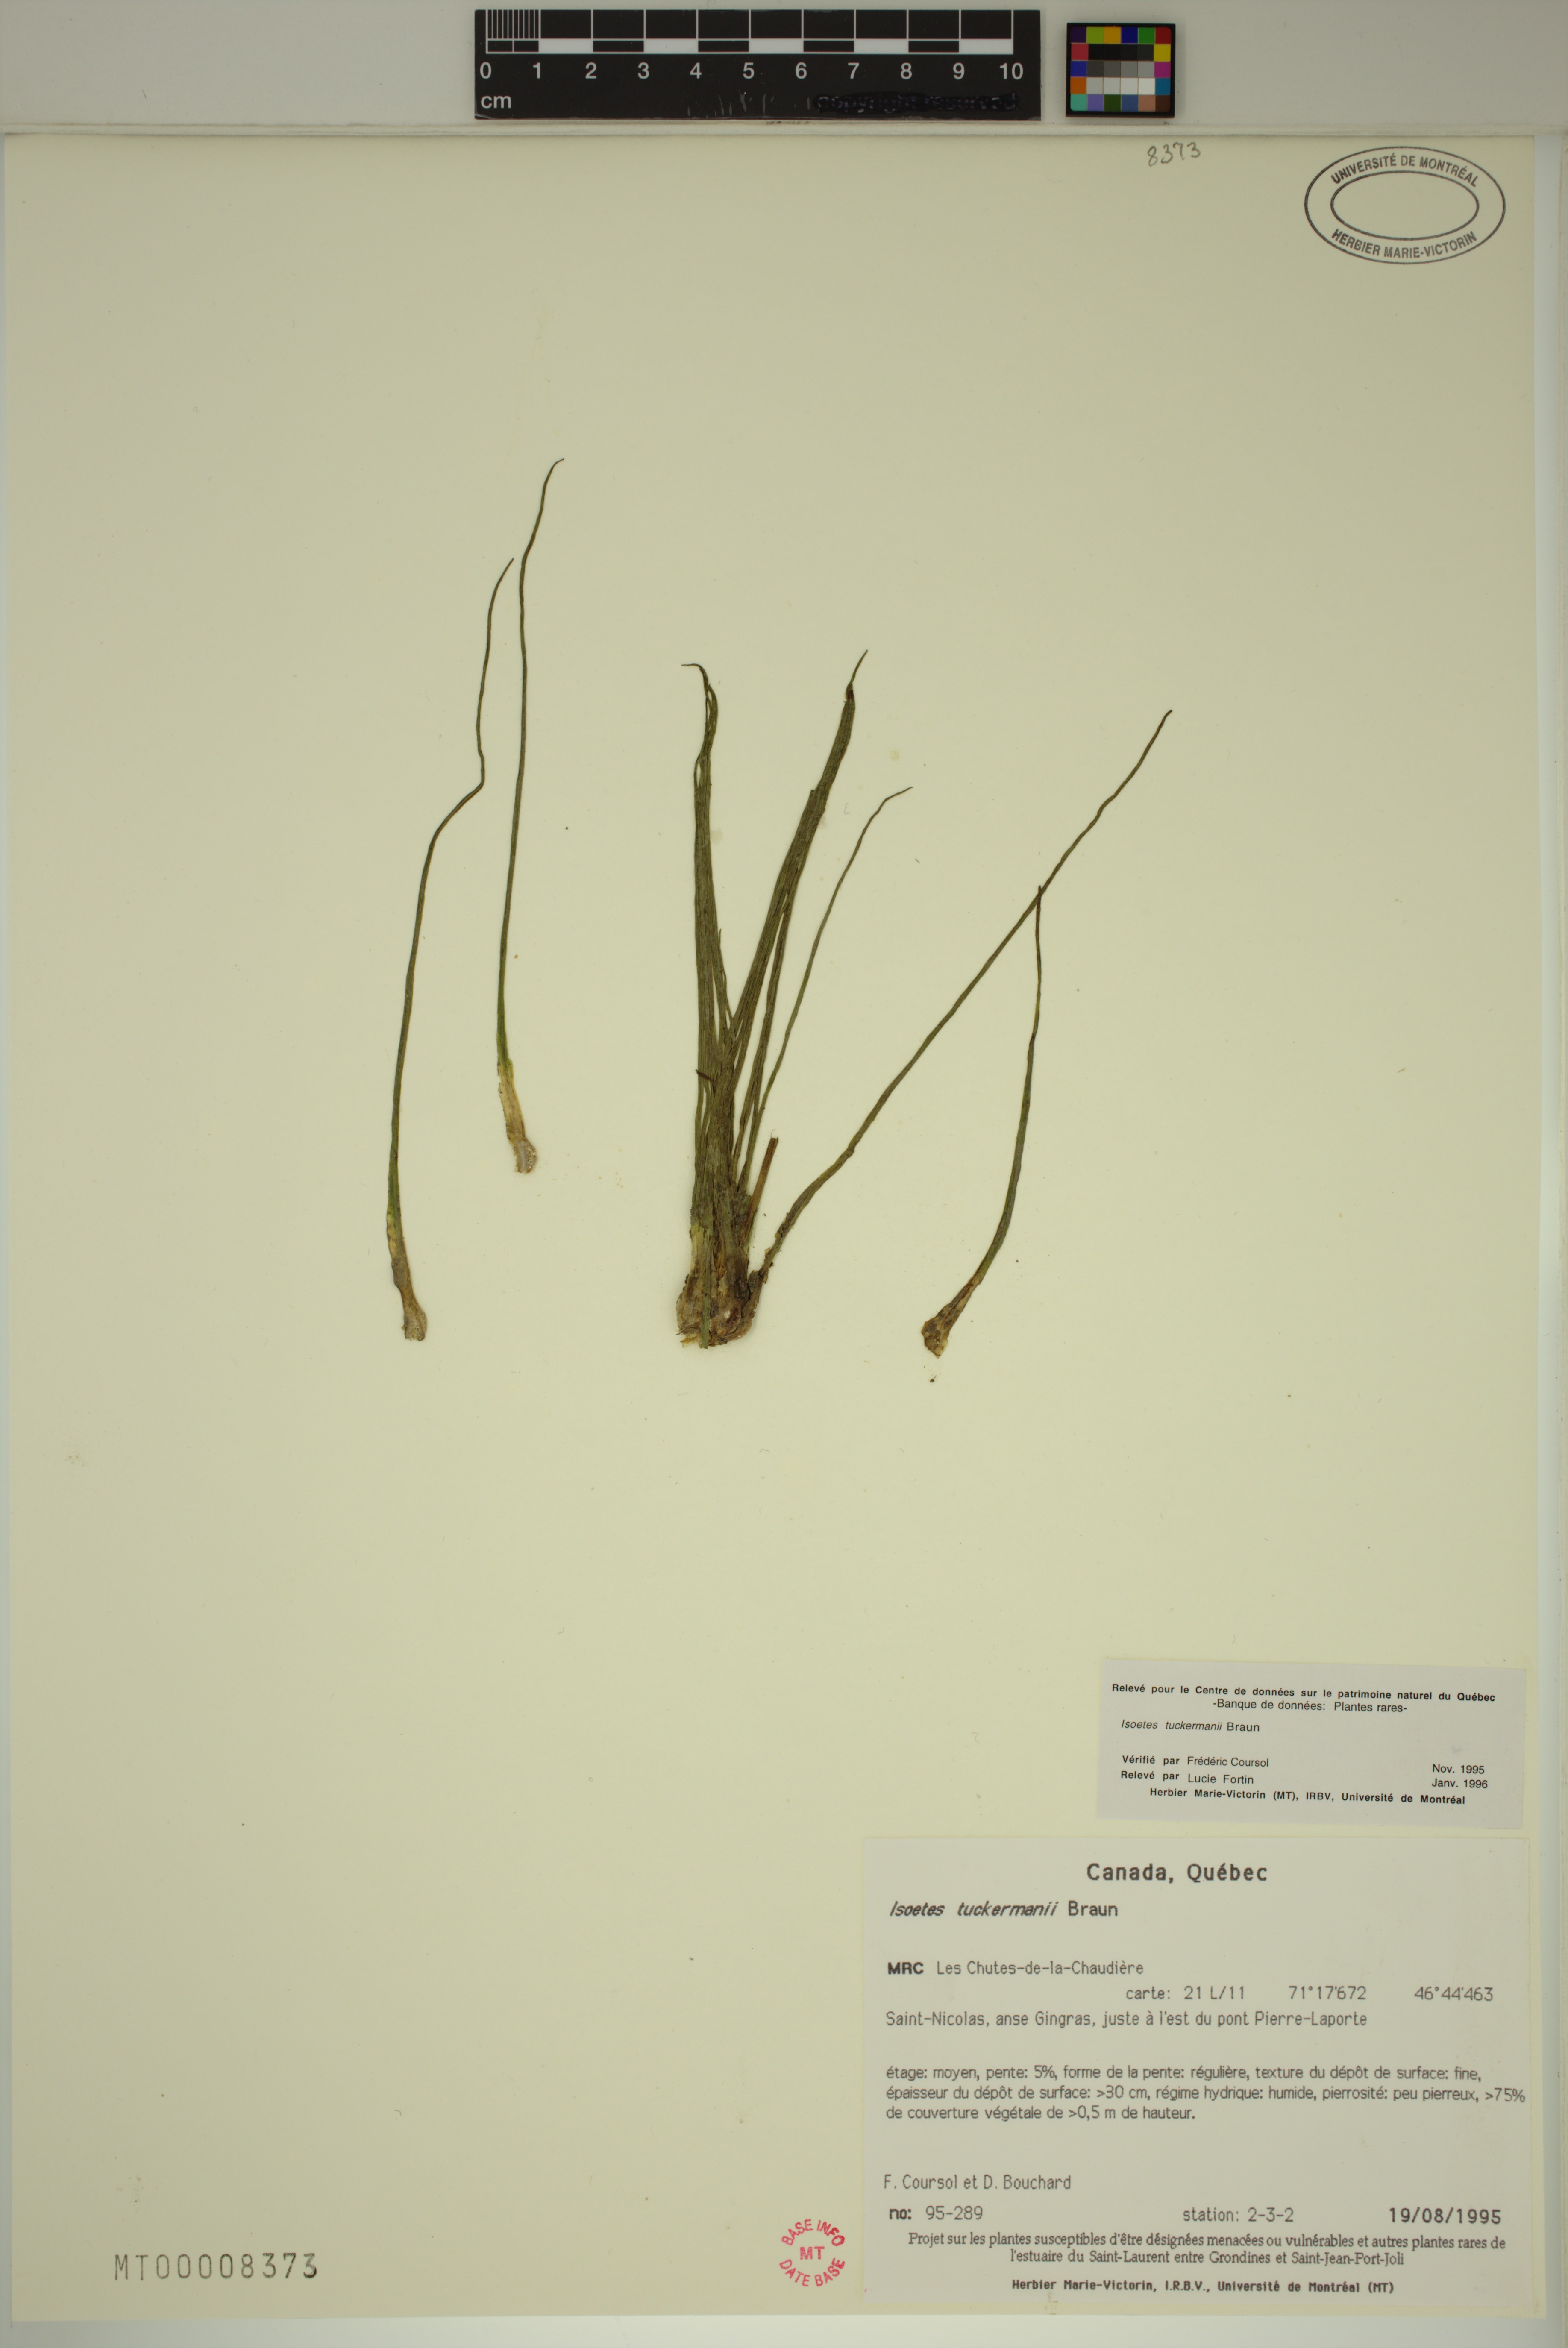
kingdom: Plantae
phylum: Tracheophyta
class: Lycopodiopsida
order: Isoetales
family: Isoetaceae
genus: Isoetes
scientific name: Isoetes laurentiana
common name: St. lawrence quillwort
